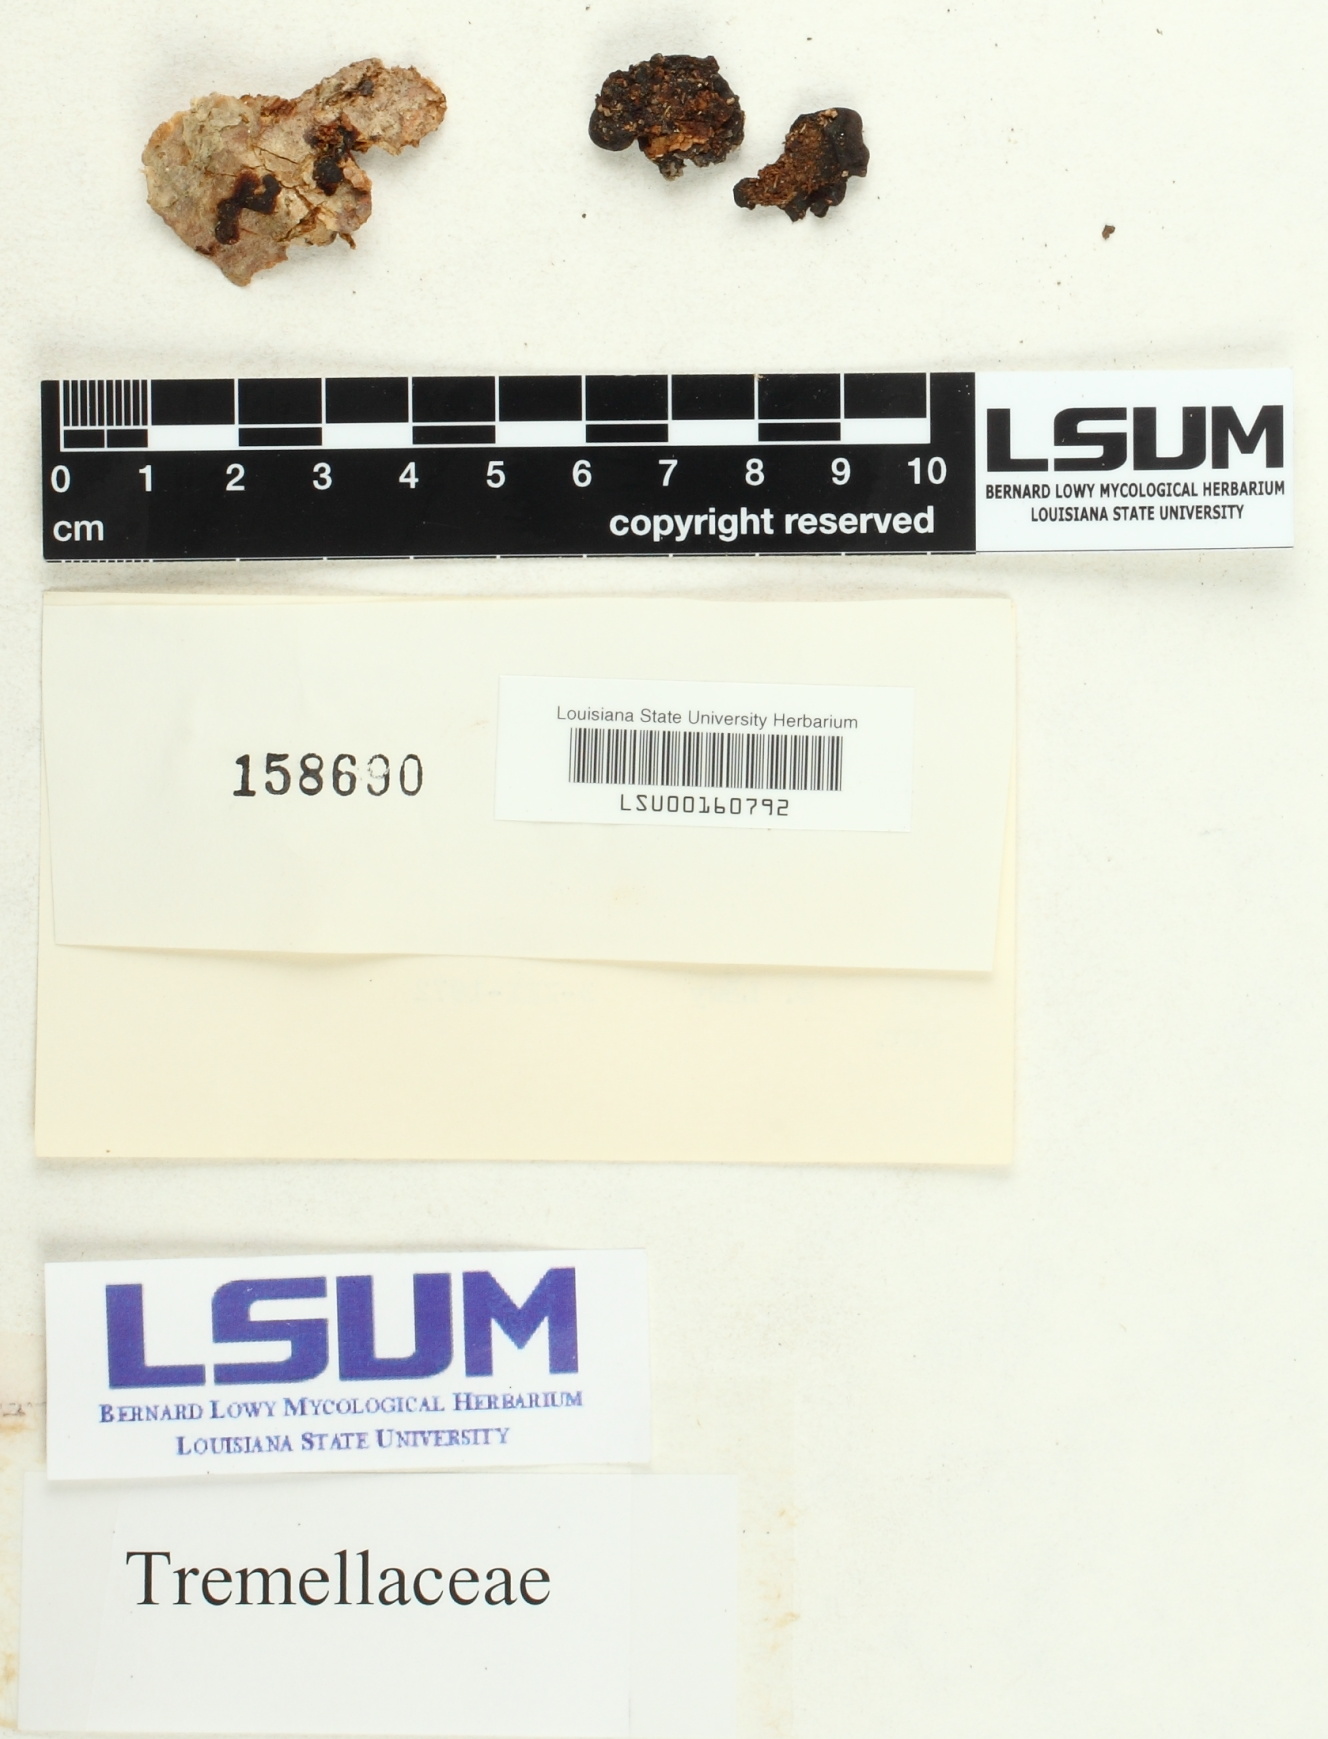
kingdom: Fungi
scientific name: Fungi
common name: Fungi
